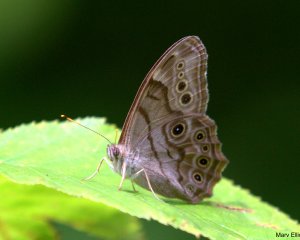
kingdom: Animalia
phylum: Arthropoda
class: Insecta
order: Lepidoptera
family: Nymphalidae
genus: Lethe
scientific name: Lethe anthedon
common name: Northern Pearly-Eye
